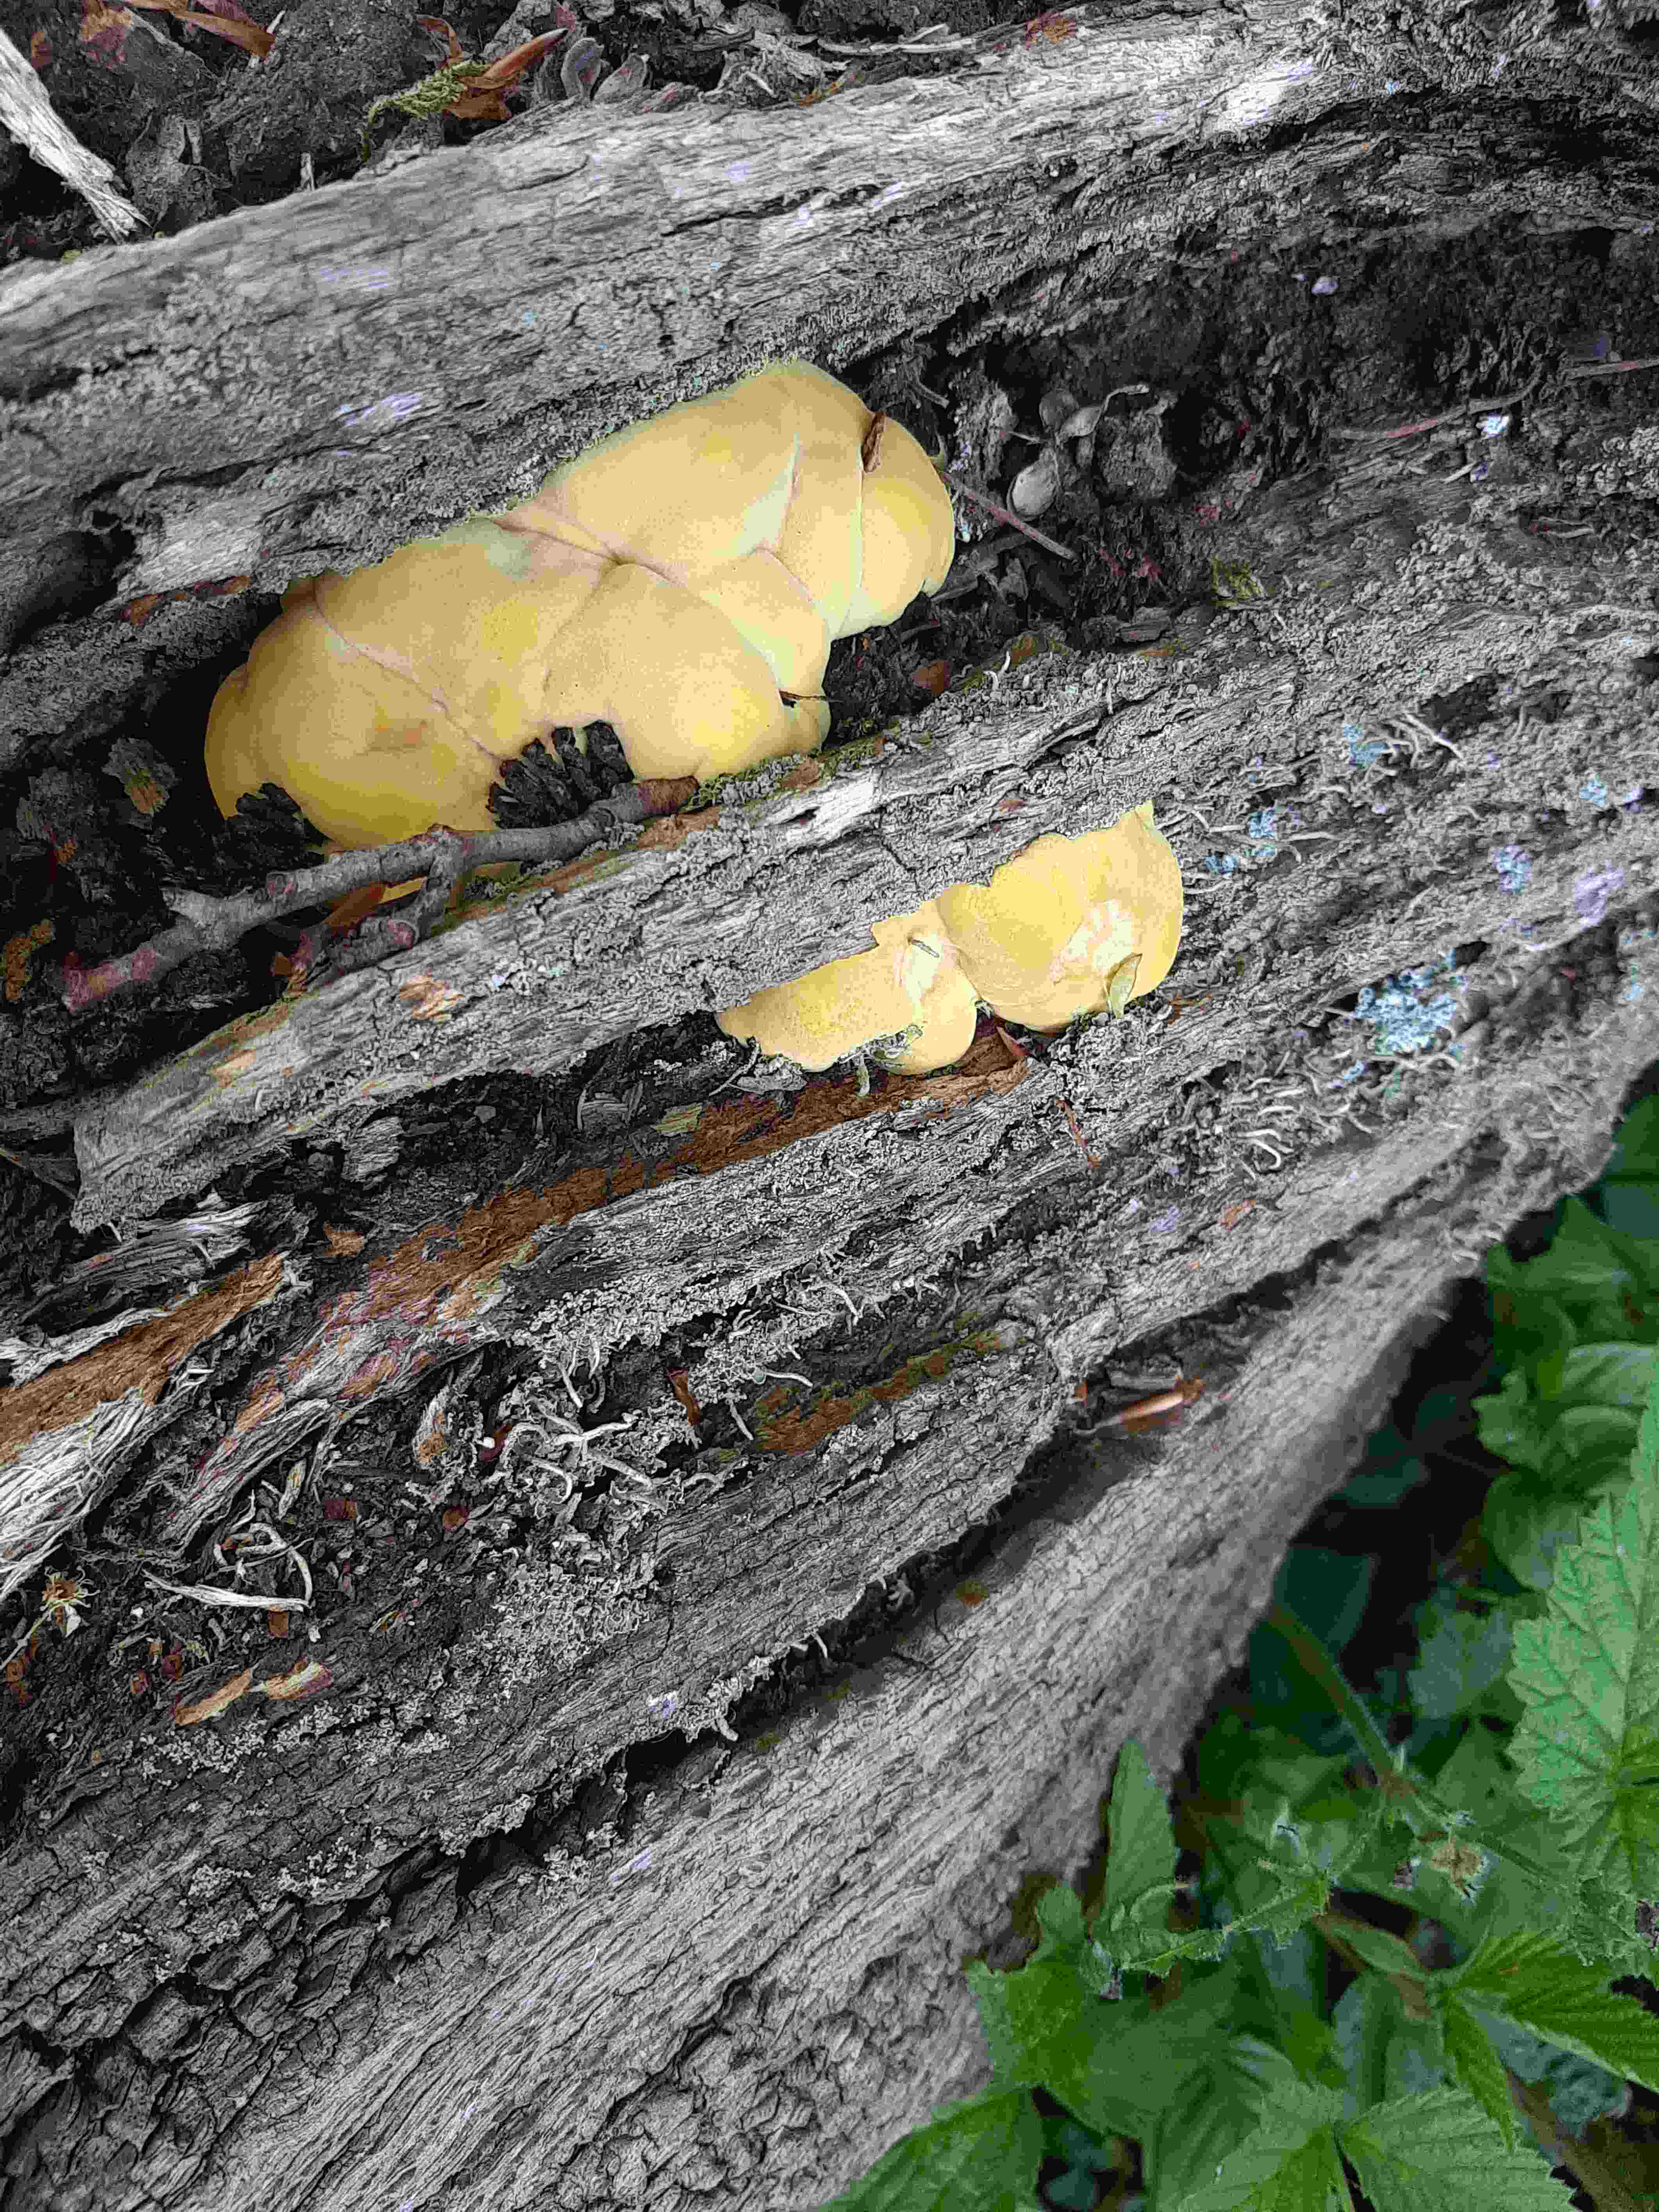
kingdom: Fungi
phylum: Basidiomycota
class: Agaricomycetes
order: Polyporales
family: Laetiporaceae
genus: Laetiporus
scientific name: Laetiporus sulphureus
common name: svovlporesvamp
